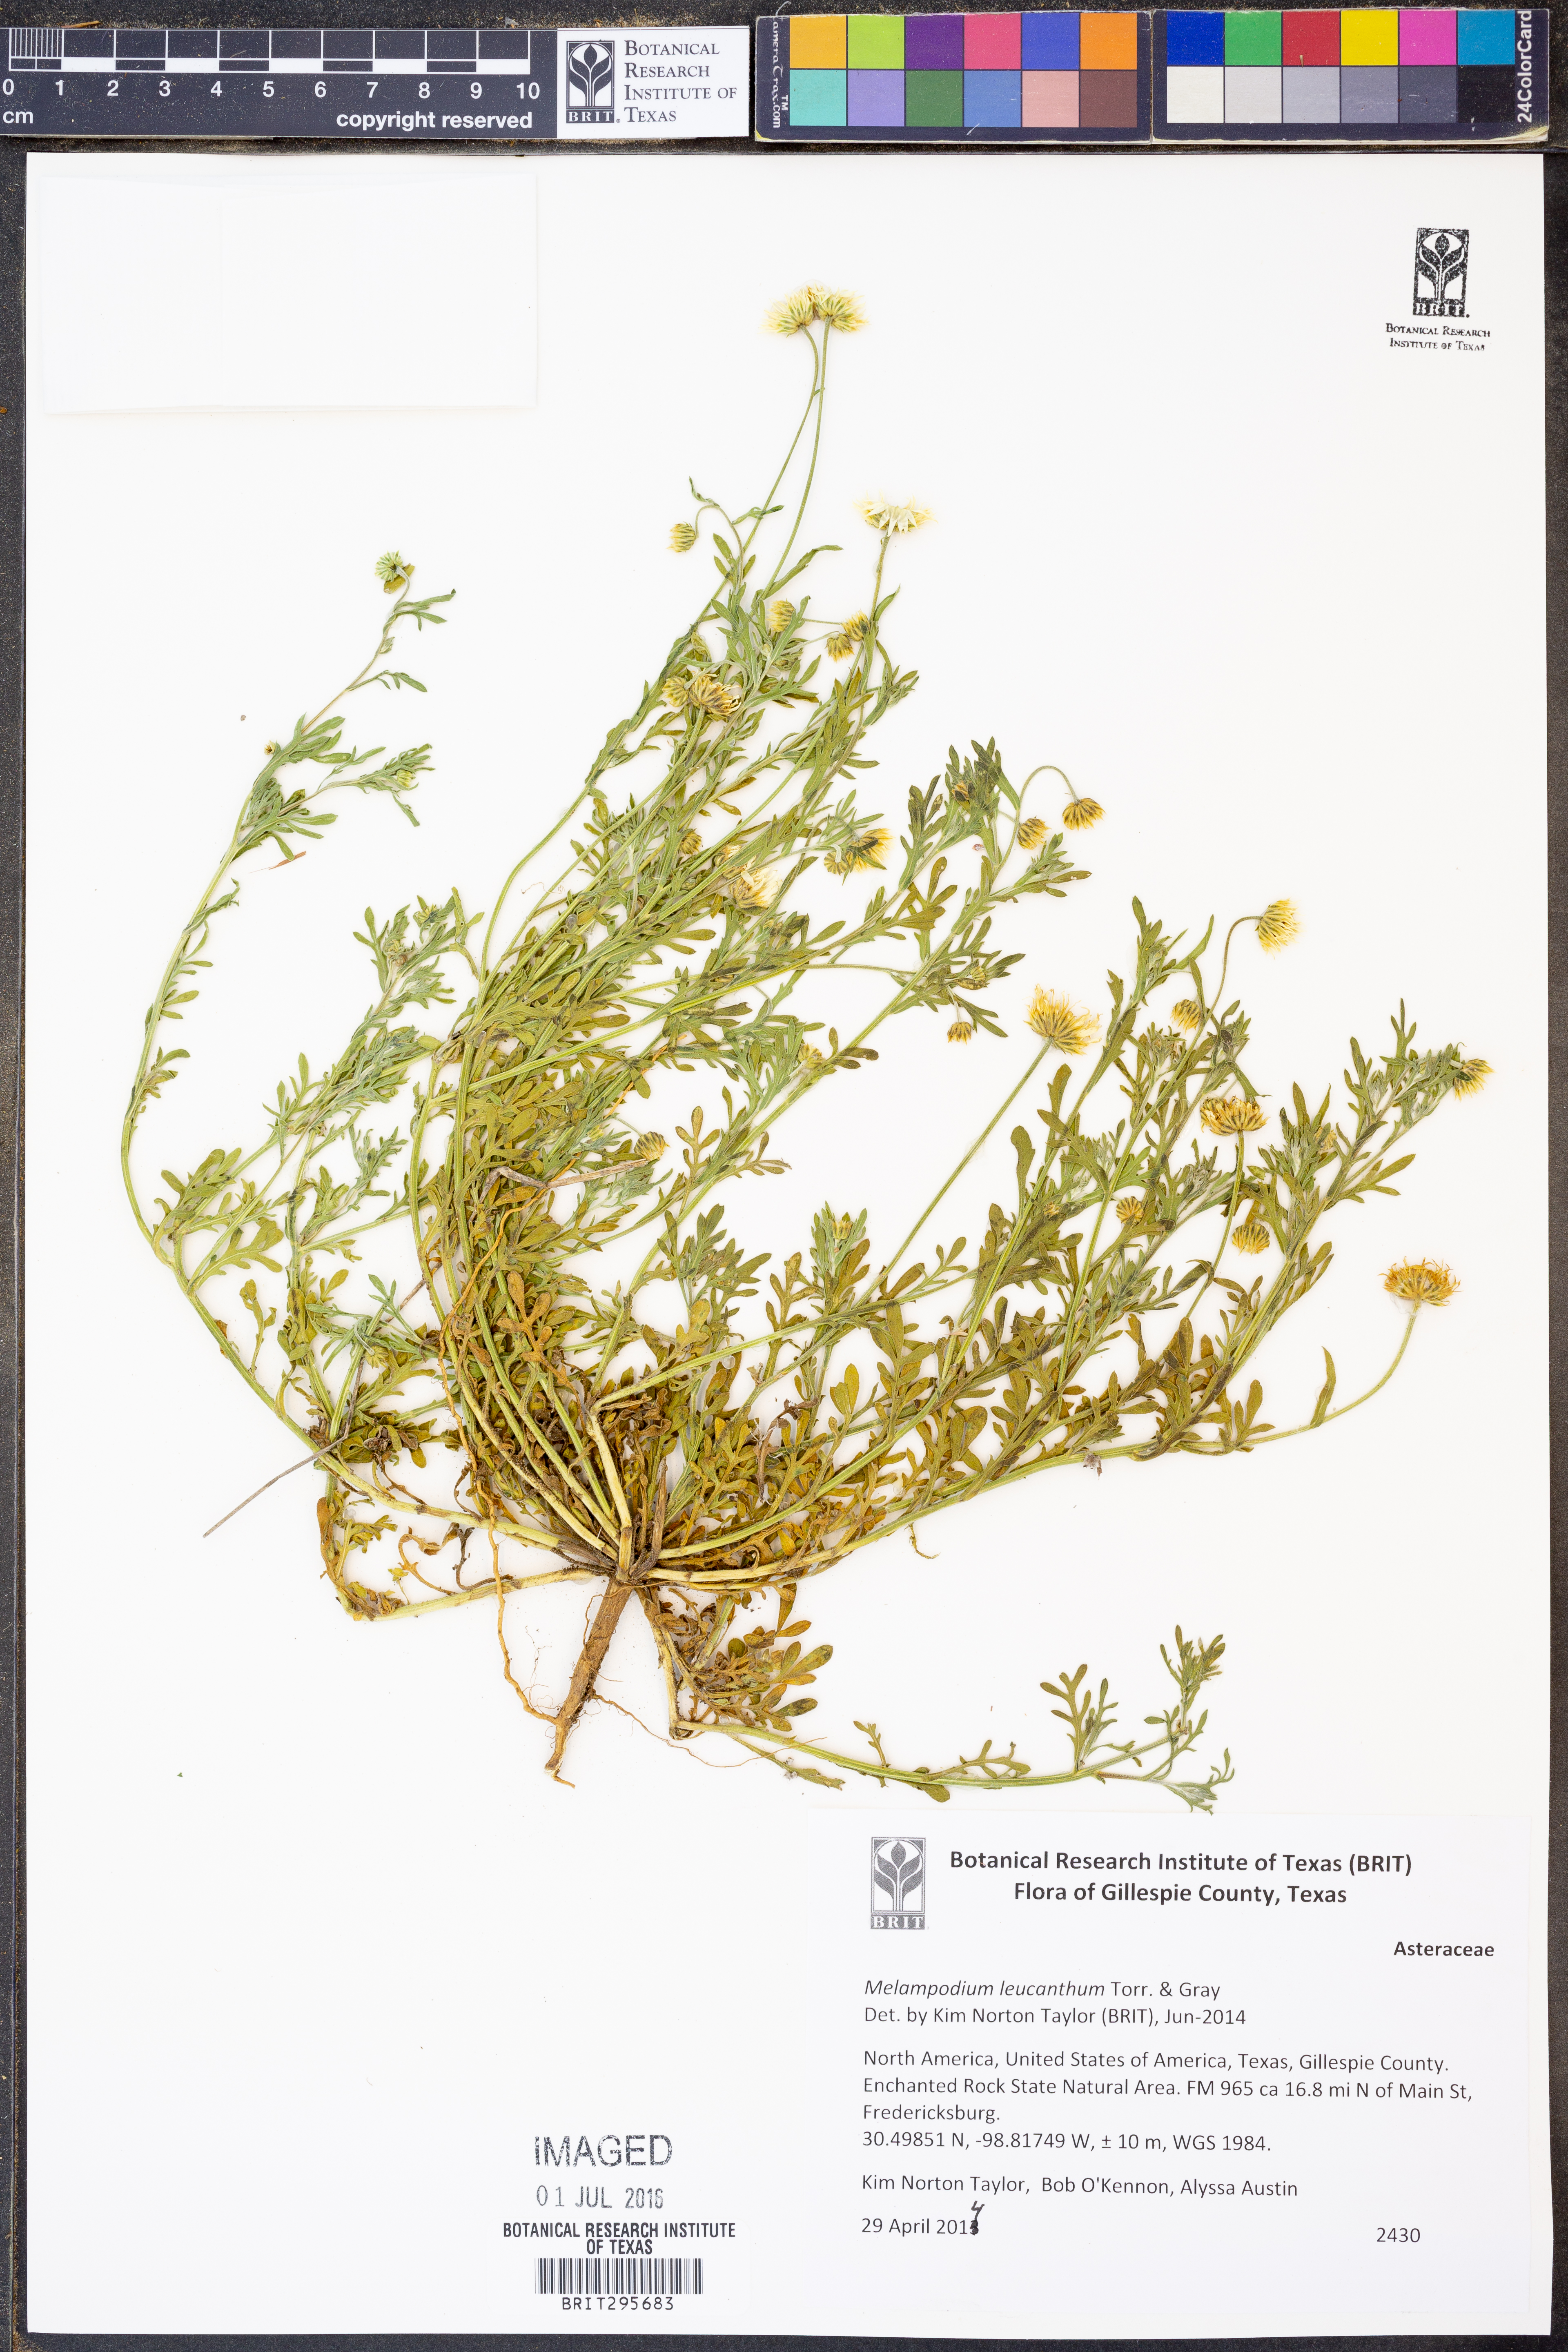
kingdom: Plantae
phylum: Tracheophyta
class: Magnoliopsida
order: Asterales
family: Asteraceae
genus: Melampodium
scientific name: Melampodium leucanthum
